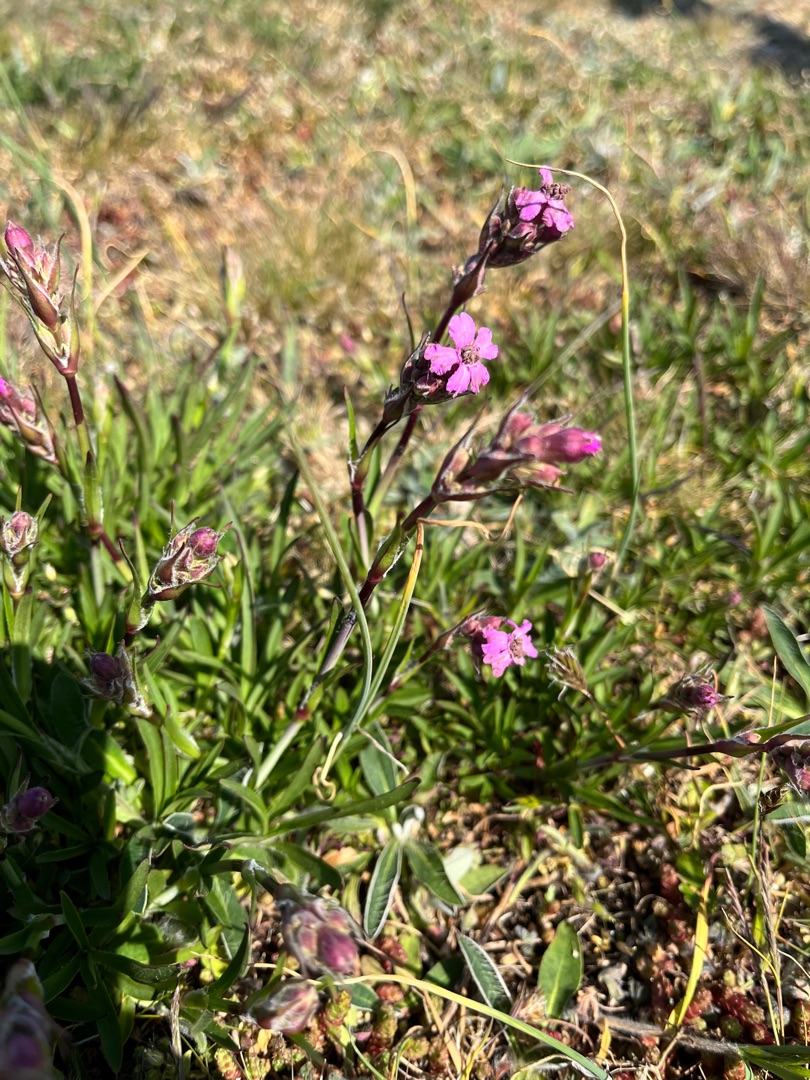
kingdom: Plantae
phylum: Tracheophyta
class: Magnoliopsida
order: Caryophyllales
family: Caryophyllaceae
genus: Viscaria
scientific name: Viscaria vulgaris
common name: Tjærenellike
